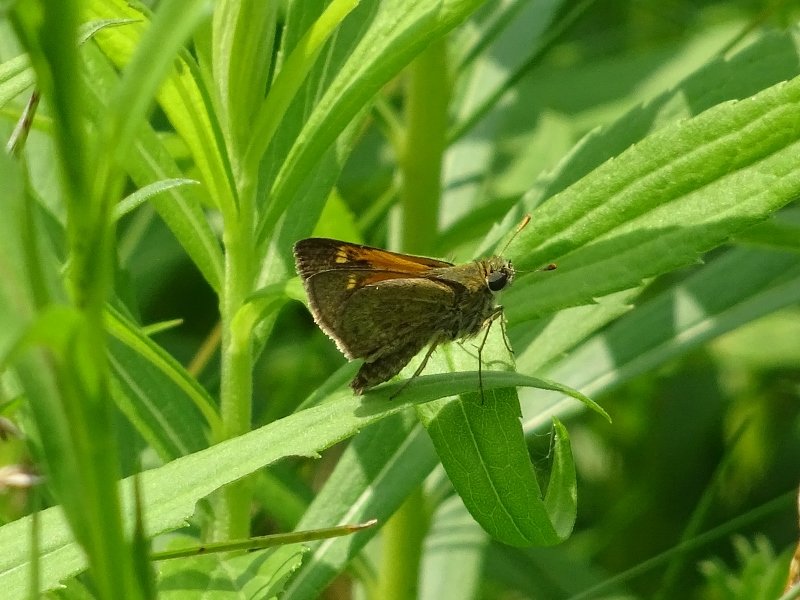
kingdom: Animalia
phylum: Arthropoda
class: Insecta
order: Lepidoptera
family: Hesperiidae
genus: Polites
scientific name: Polites themistocles
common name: Tawny-edged Skipper
